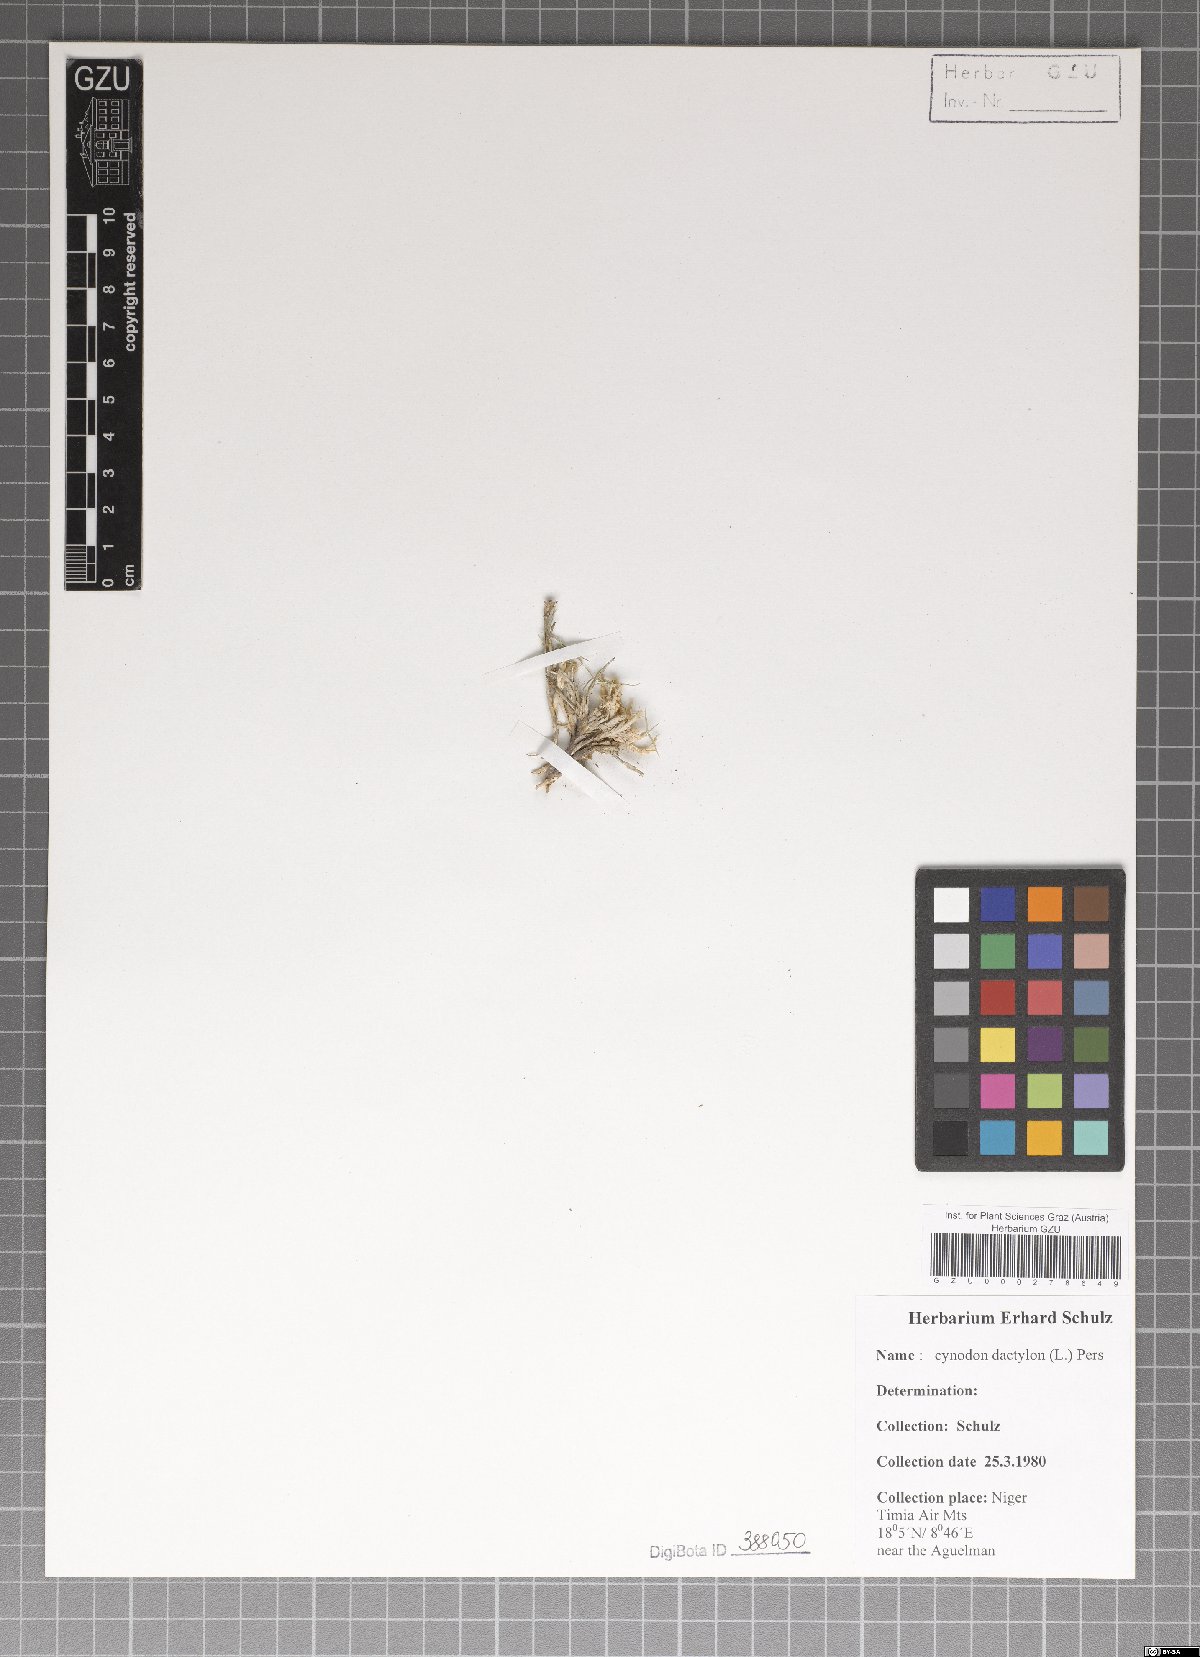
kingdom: Plantae
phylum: Tracheophyta
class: Liliopsida
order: Poales
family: Poaceae
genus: Cynodon
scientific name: Cynodon dactylon
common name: Bermuda grass
